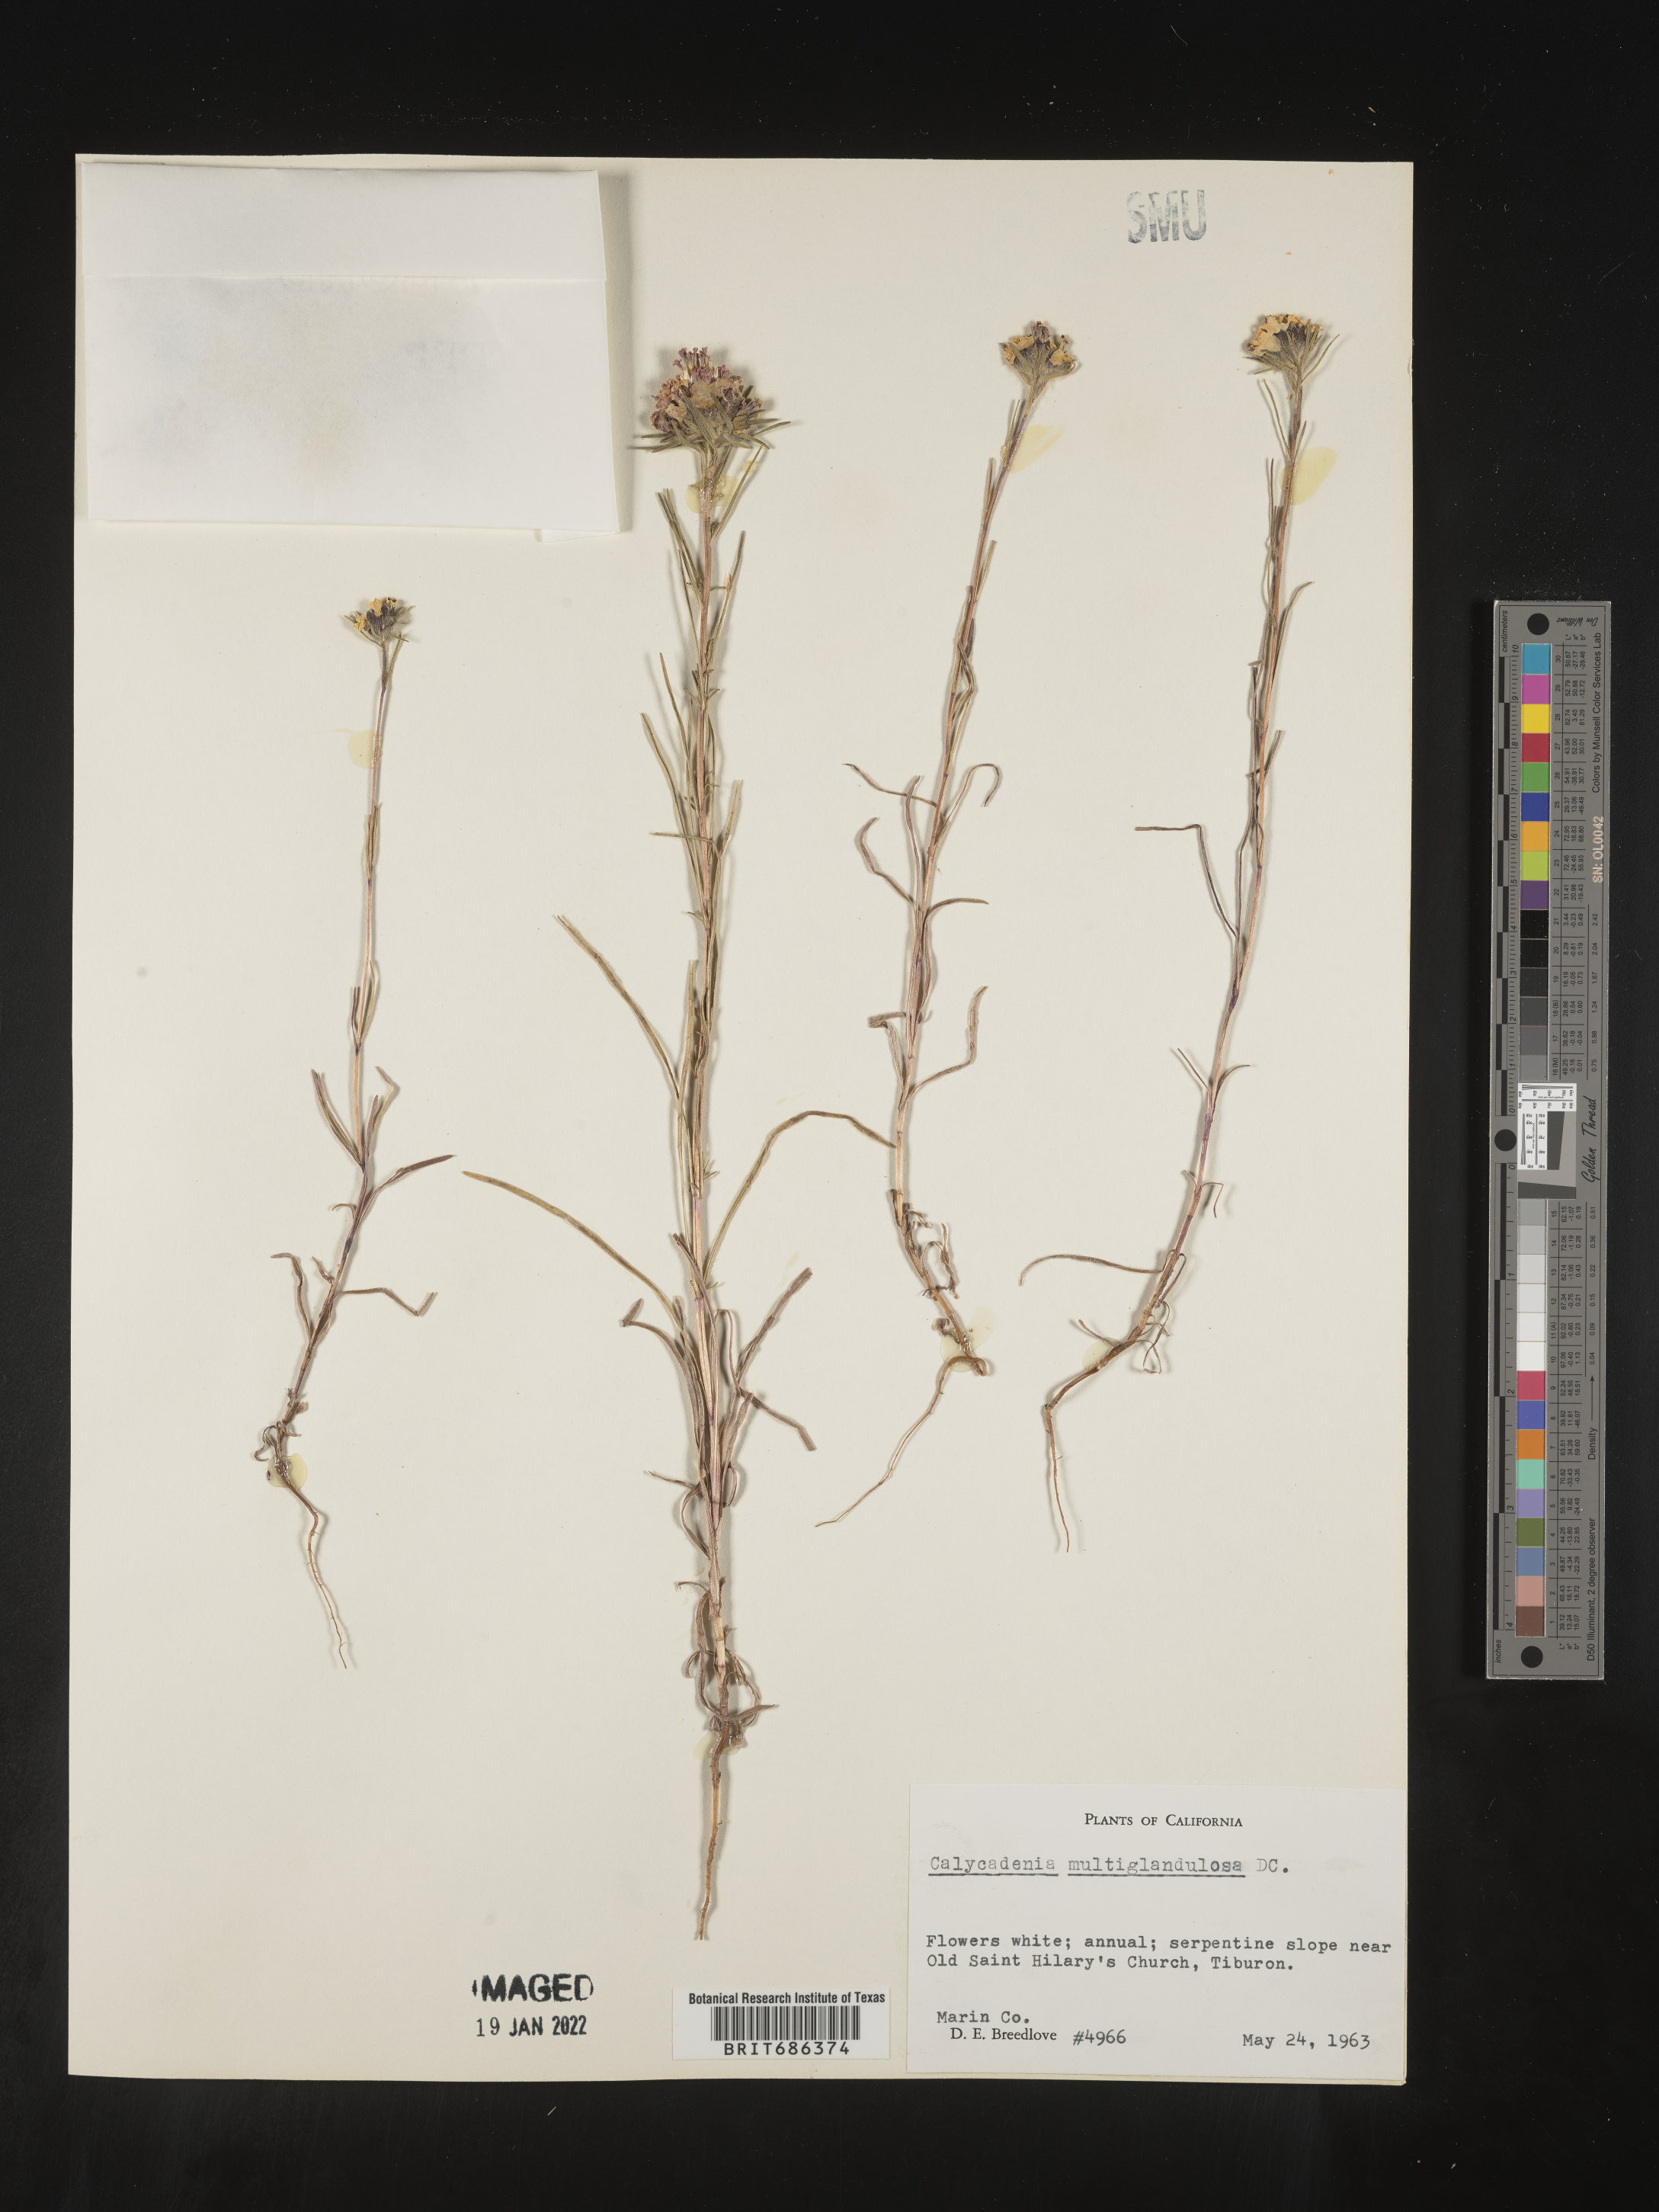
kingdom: Plantae
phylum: Tracheophyta
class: Magnoliopsida
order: Asterales
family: Asteraceae
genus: Calycadenia
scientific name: Calycadenia
